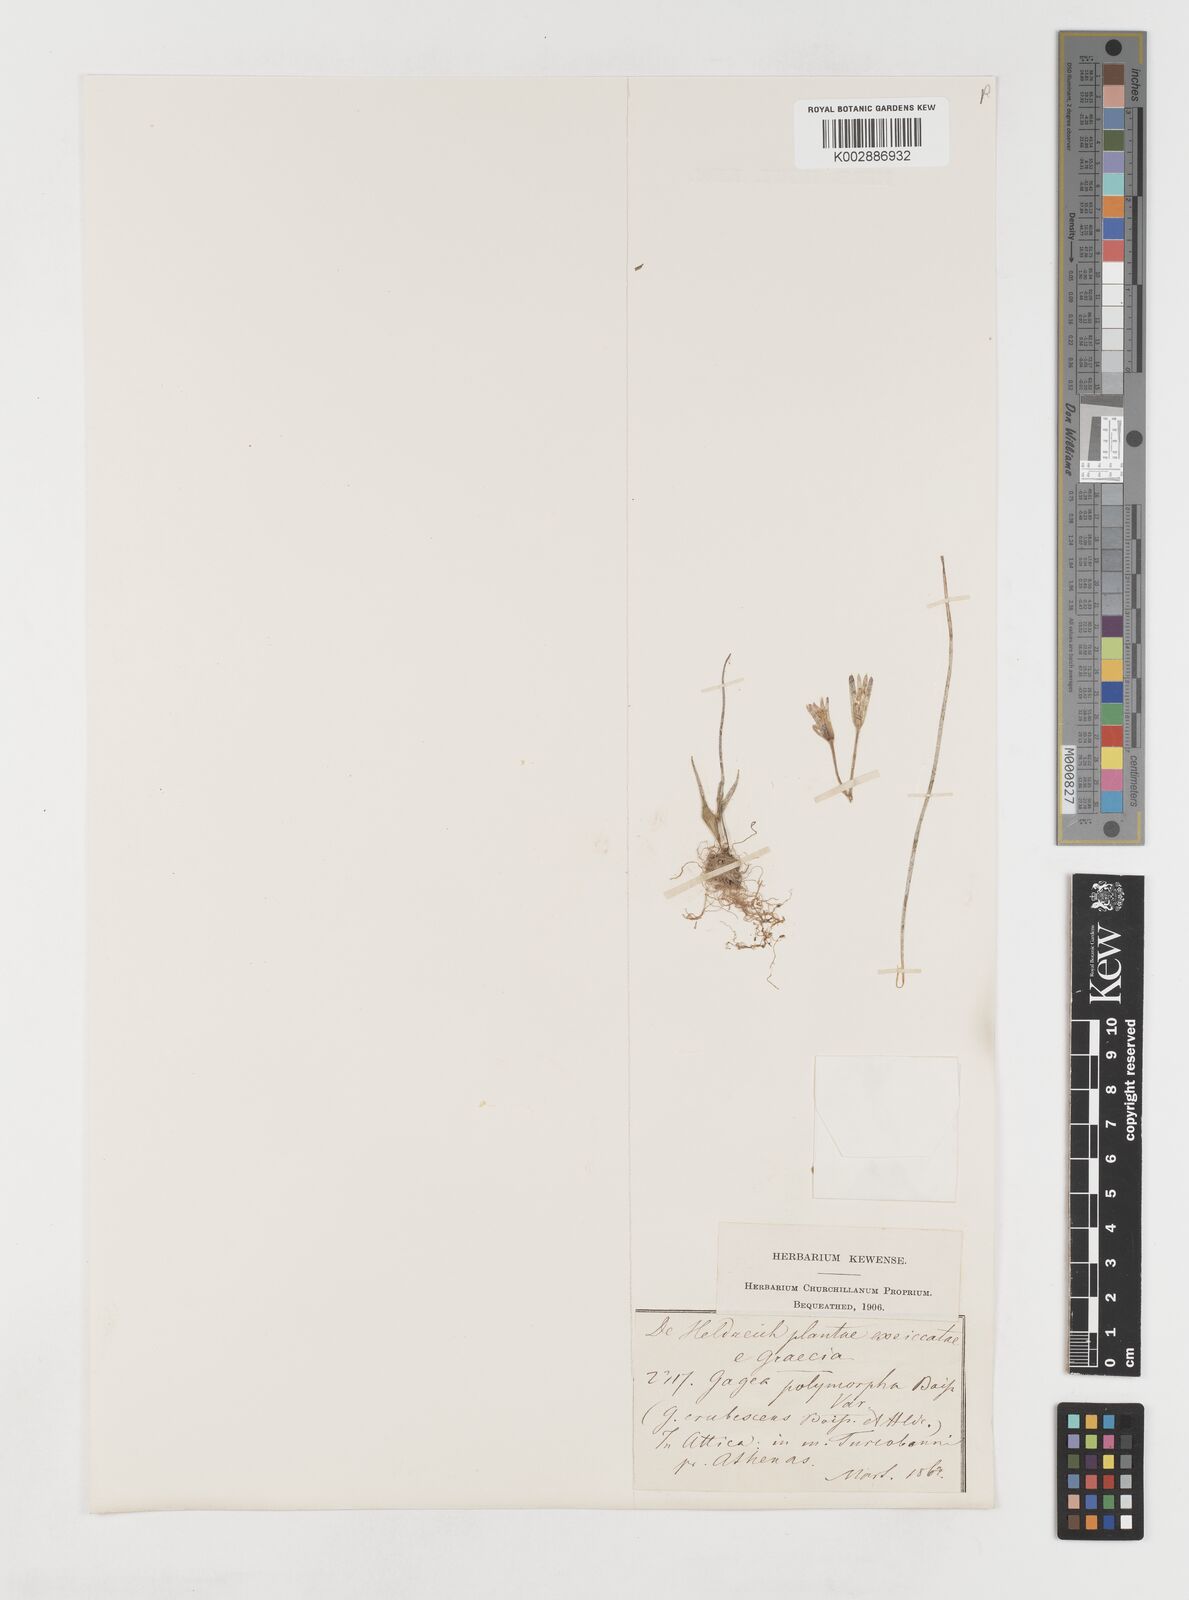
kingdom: Plantae
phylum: Tracheophyta
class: Liliopsida
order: Liliales
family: Liliaceae
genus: Gagea
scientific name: Gagea soleirolii
